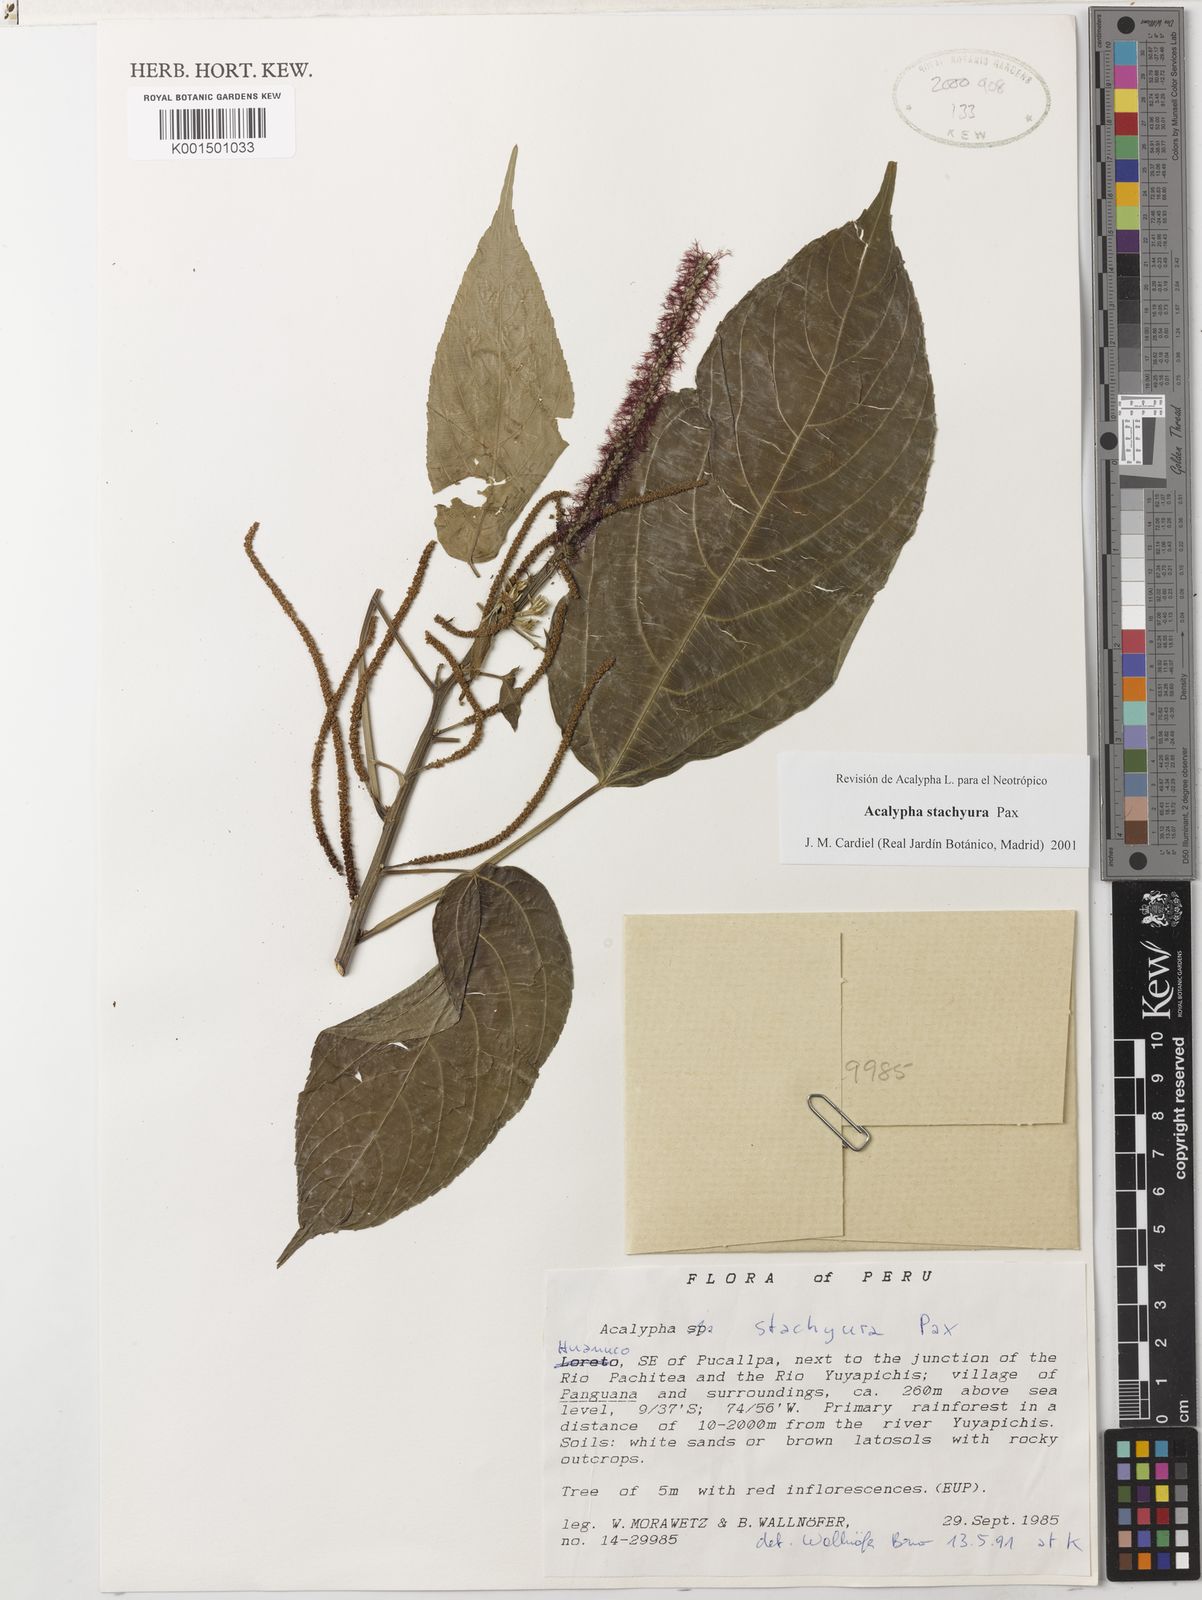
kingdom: Plantae
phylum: Tracheophyta
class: Magnoliopsida
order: Malpighiales
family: Euphorbiaceae
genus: Acalypha
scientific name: Acalypha stachyura
